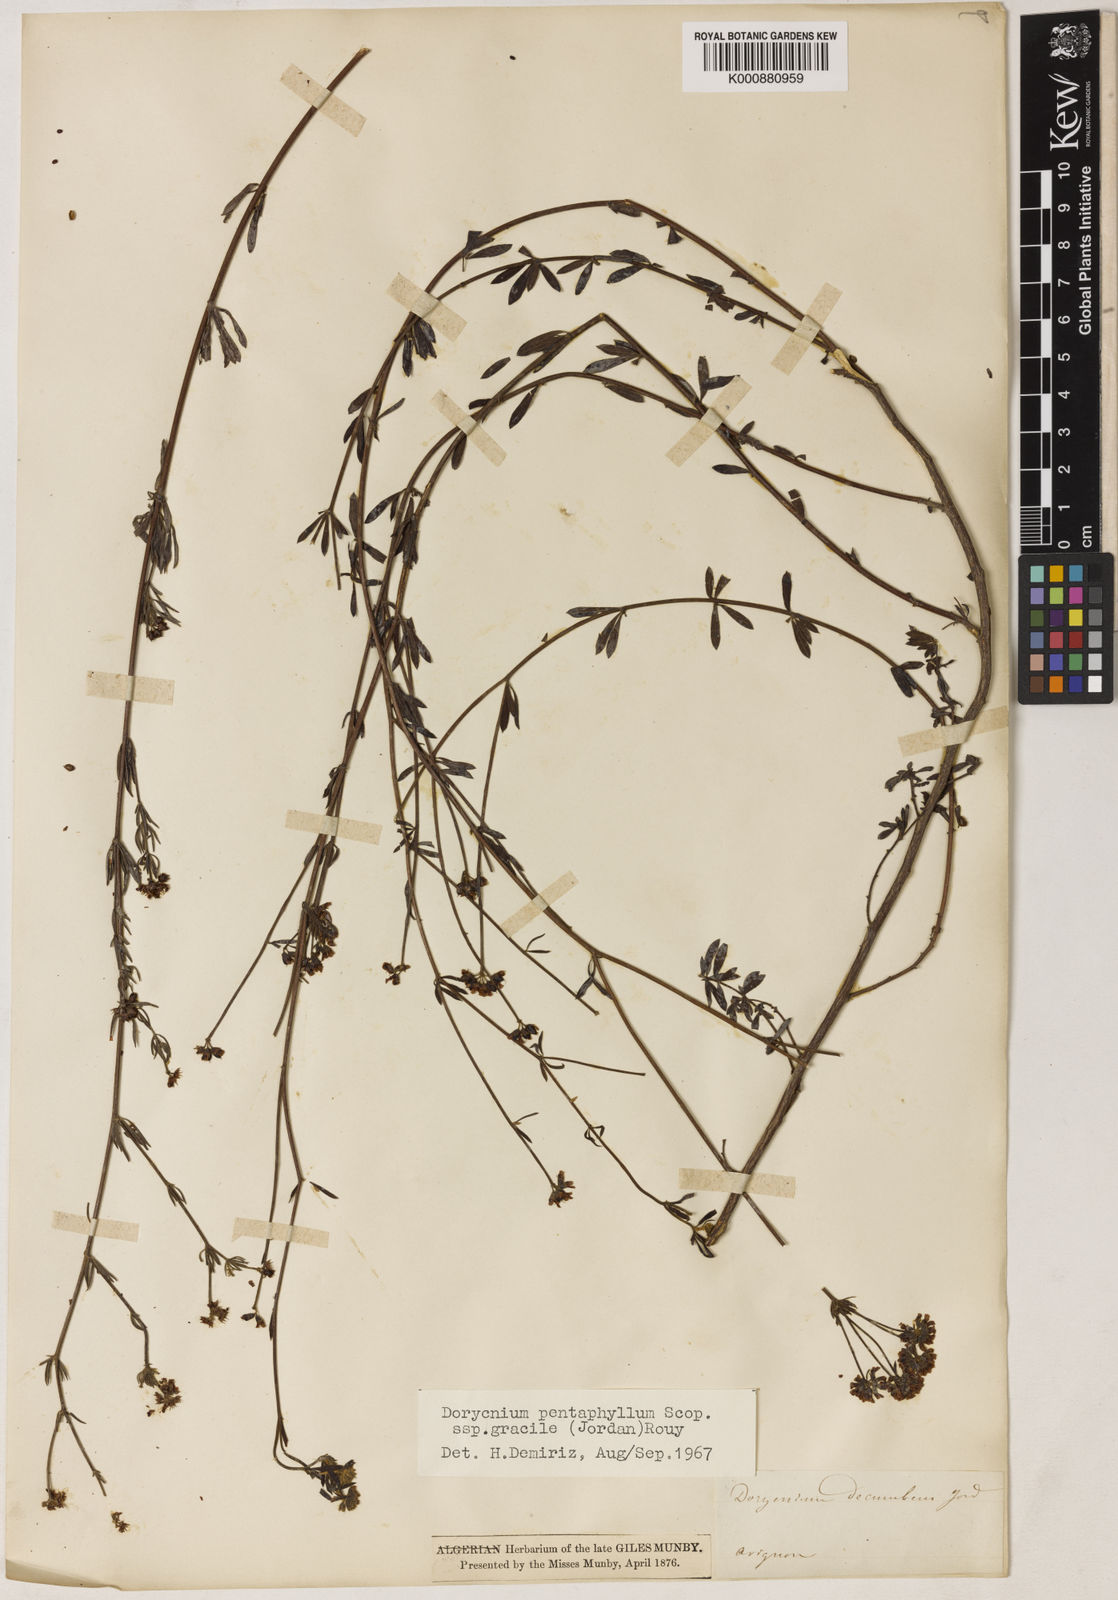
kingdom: Plantae
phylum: Tracheophyta
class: Magnoliopsida
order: Fabales
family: Fabaceae
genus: Lotus
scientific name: Lotus jordanii
